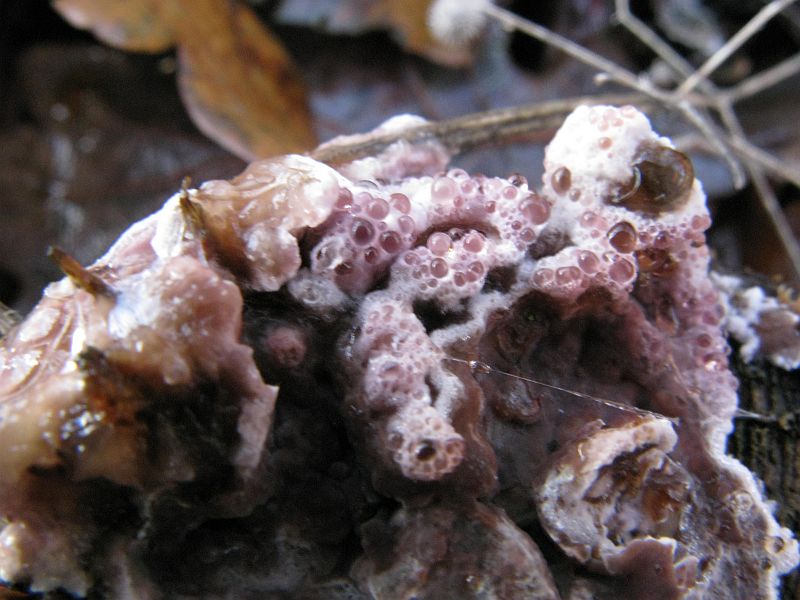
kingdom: Fungi
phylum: Basidiomycota
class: Agaricomycetes
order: Agaricales
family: Cyphellaceae
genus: Chondrostereum
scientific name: Chondrostereum purpureum
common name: purpurlædersvamp
